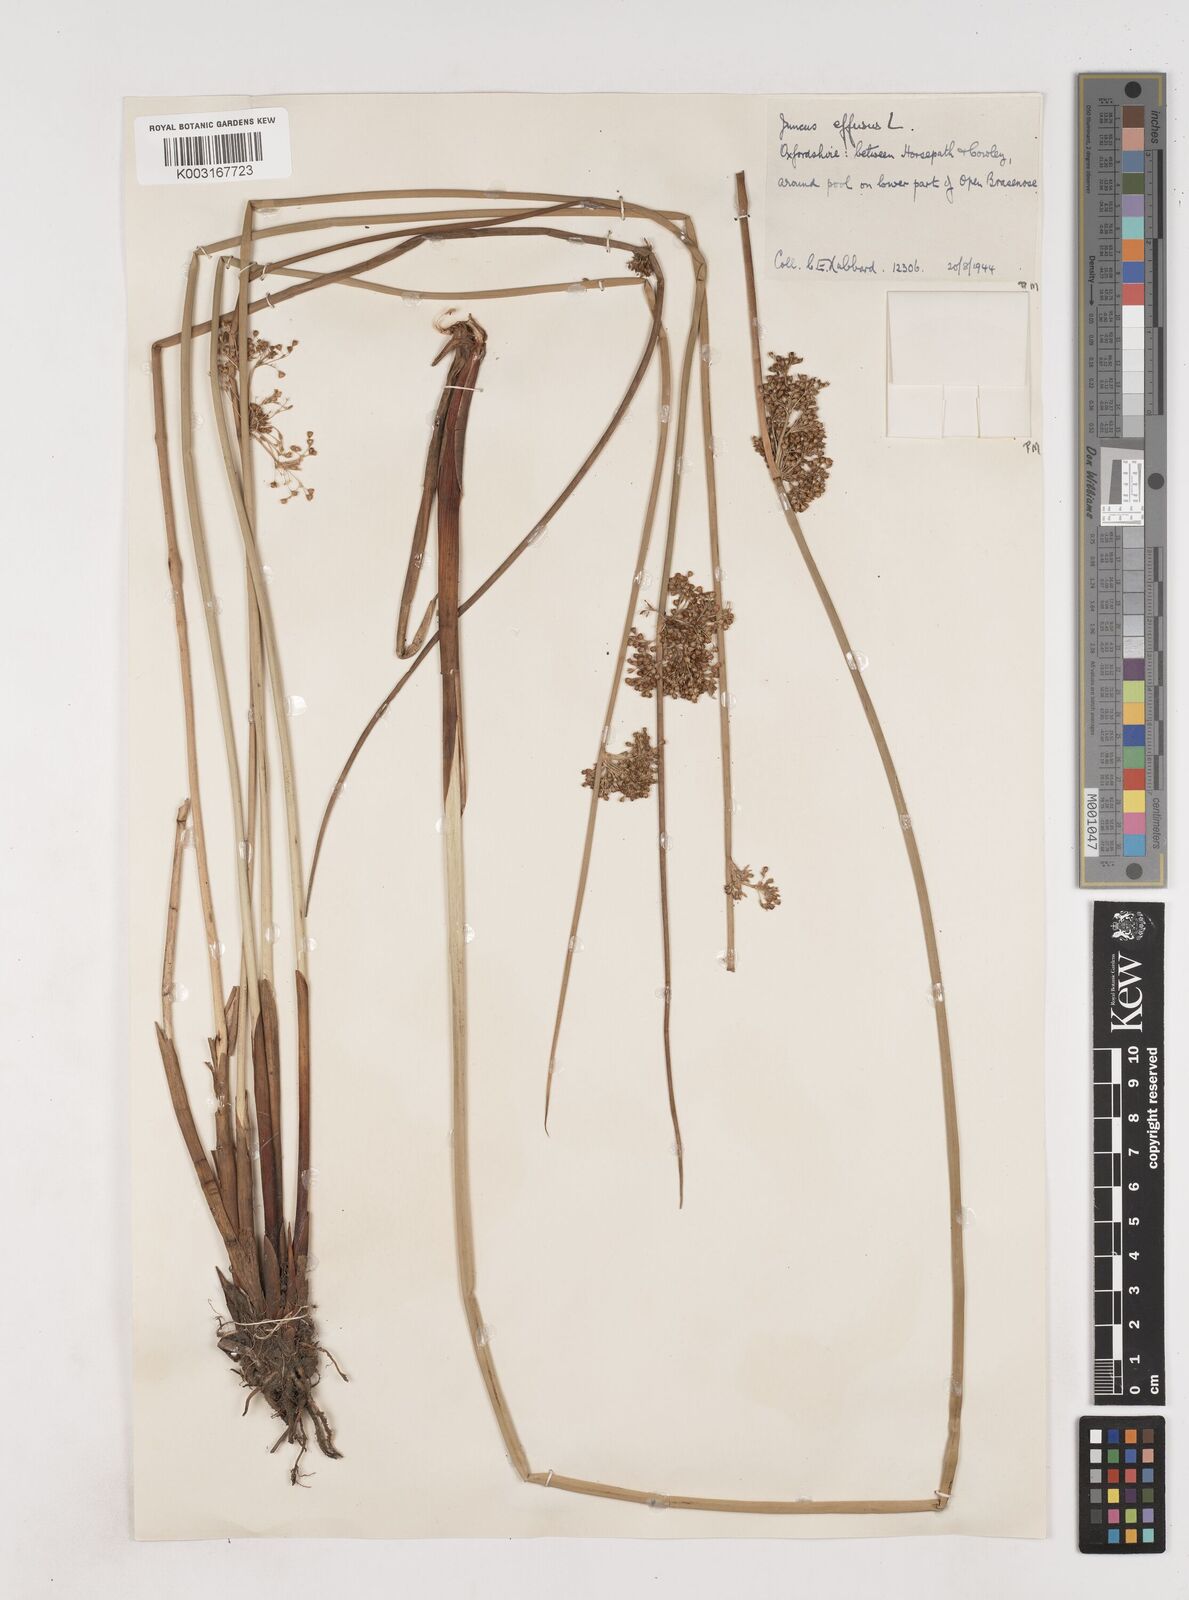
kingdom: Plantae
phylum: Tracheophyta
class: Liliopsida
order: Poales
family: Juncaceae
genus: Juncus
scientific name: Juncus effusus
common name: Soft rush
